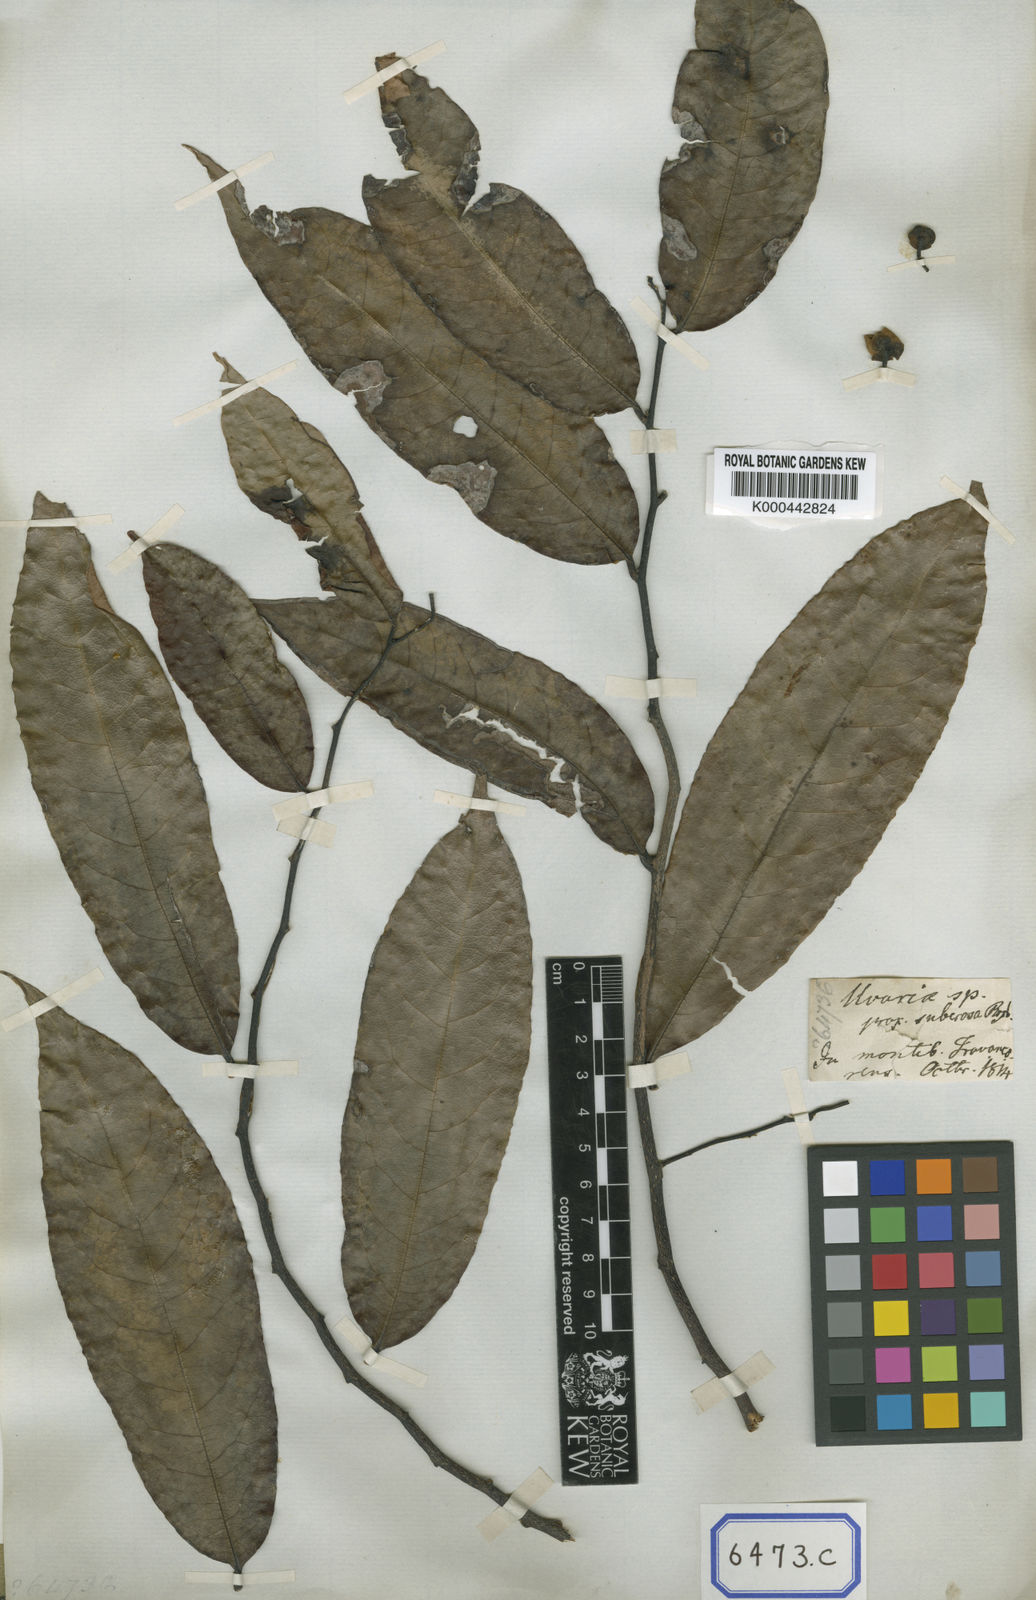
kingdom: Plantae
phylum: Tracheophyta
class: Magnoliopsida
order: Magnoliales
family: Annonaceae
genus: Uvaria
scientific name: Uvaria
